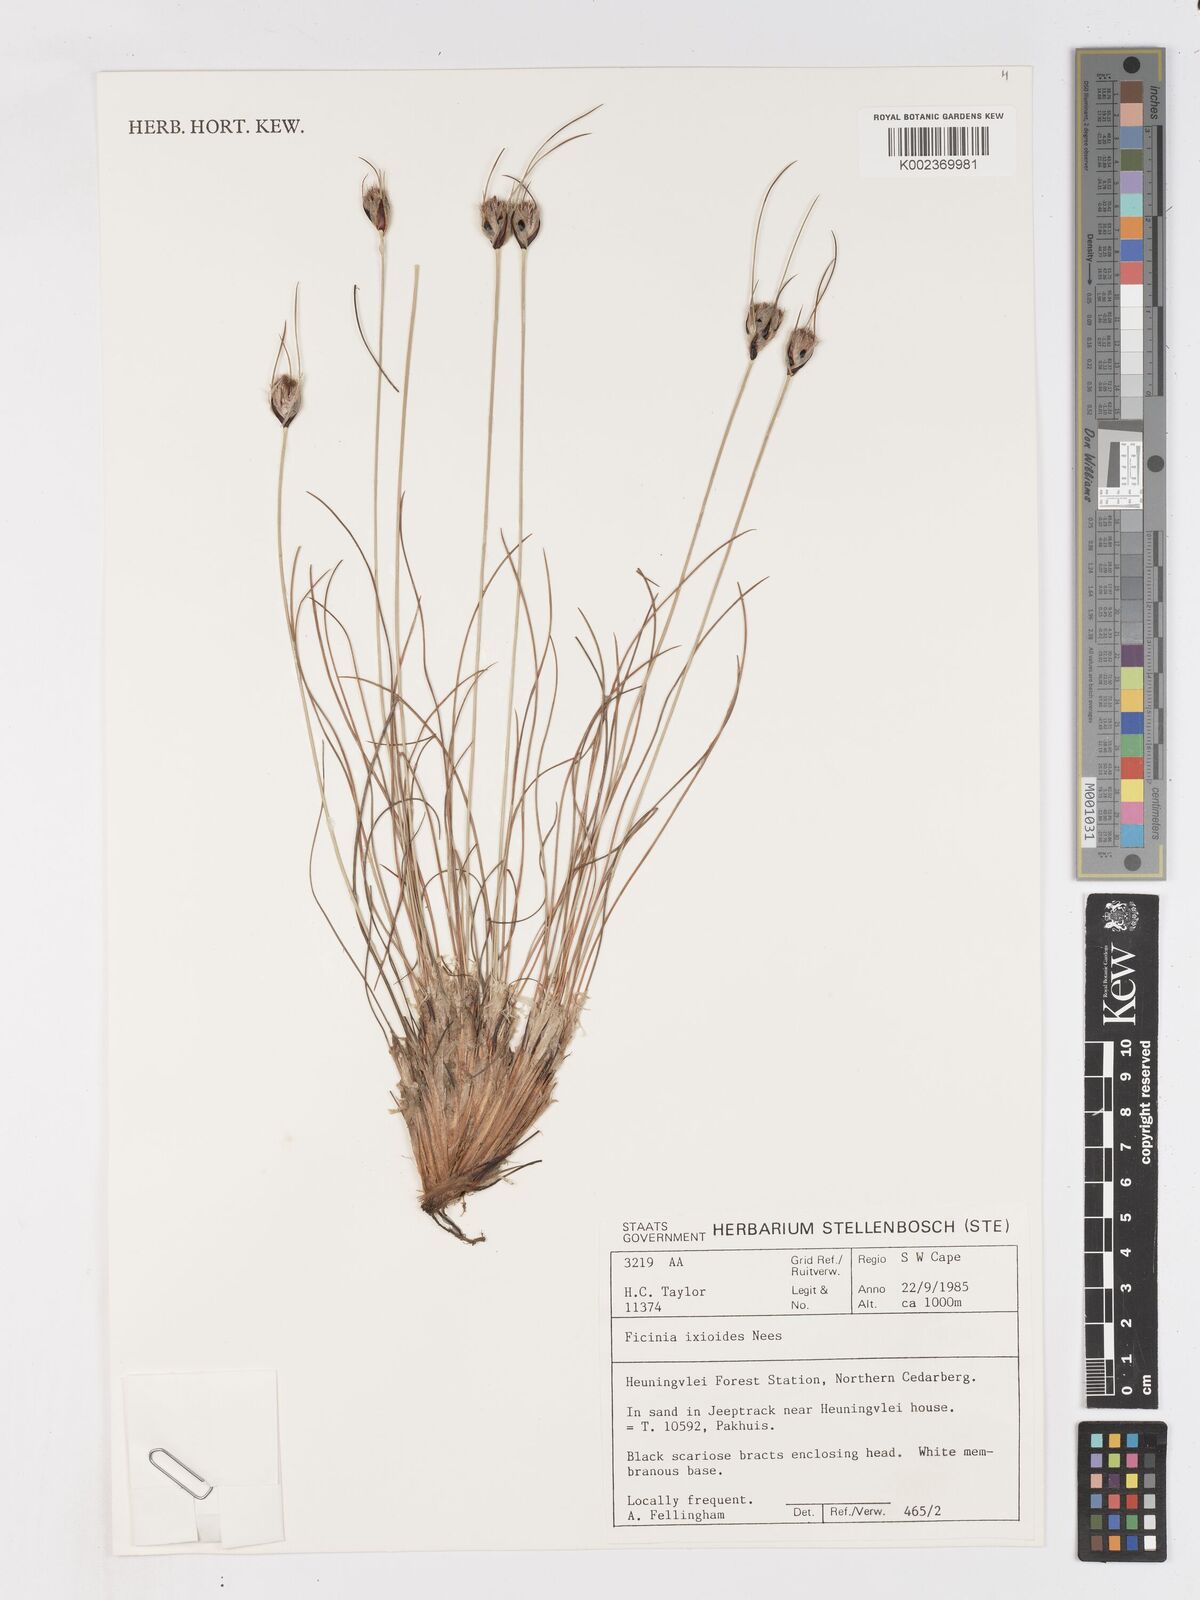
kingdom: Plantae
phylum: Tracheophyta
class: Liliopsida
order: Poales
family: Cyperaceae
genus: Ficinia
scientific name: Ficinia ixioides
